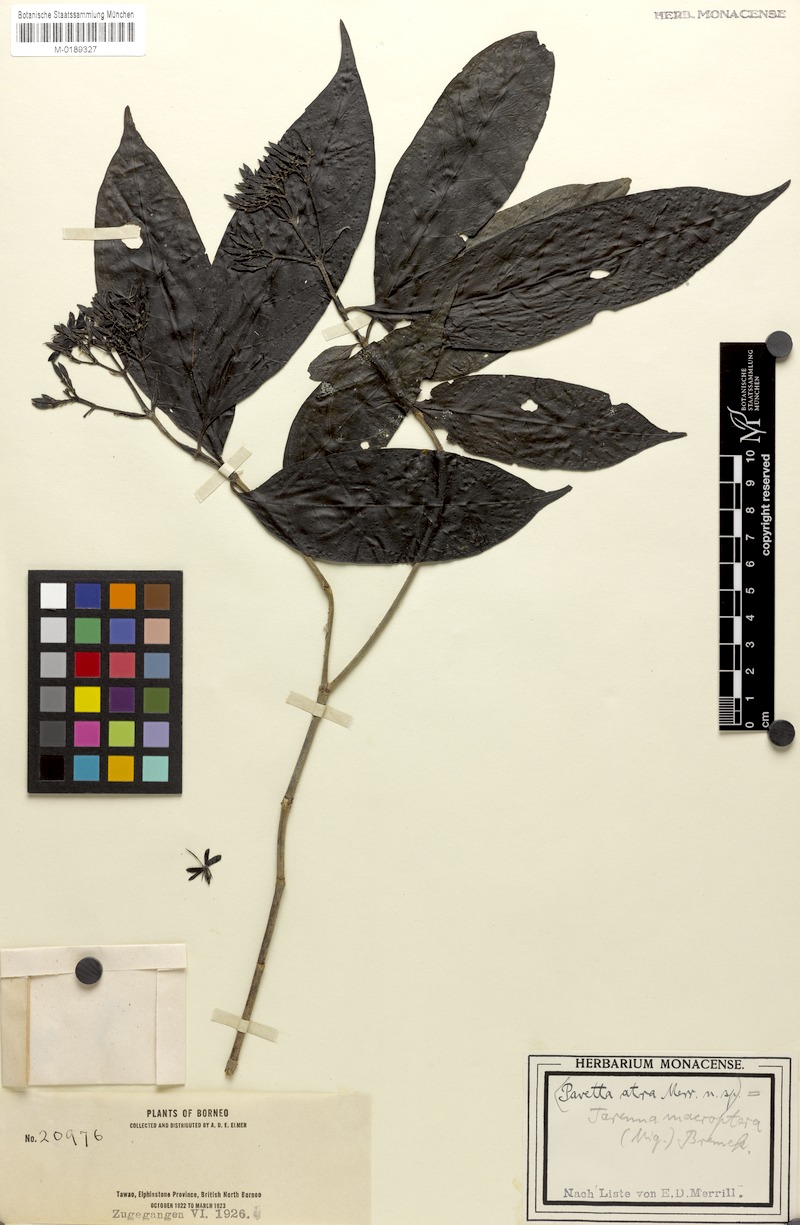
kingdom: Plantae
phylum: Tracheophyta
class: Magnoliopsida
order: Gentianales
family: Rubiaceae
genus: Tarenna
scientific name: Tarenna ciliolata
